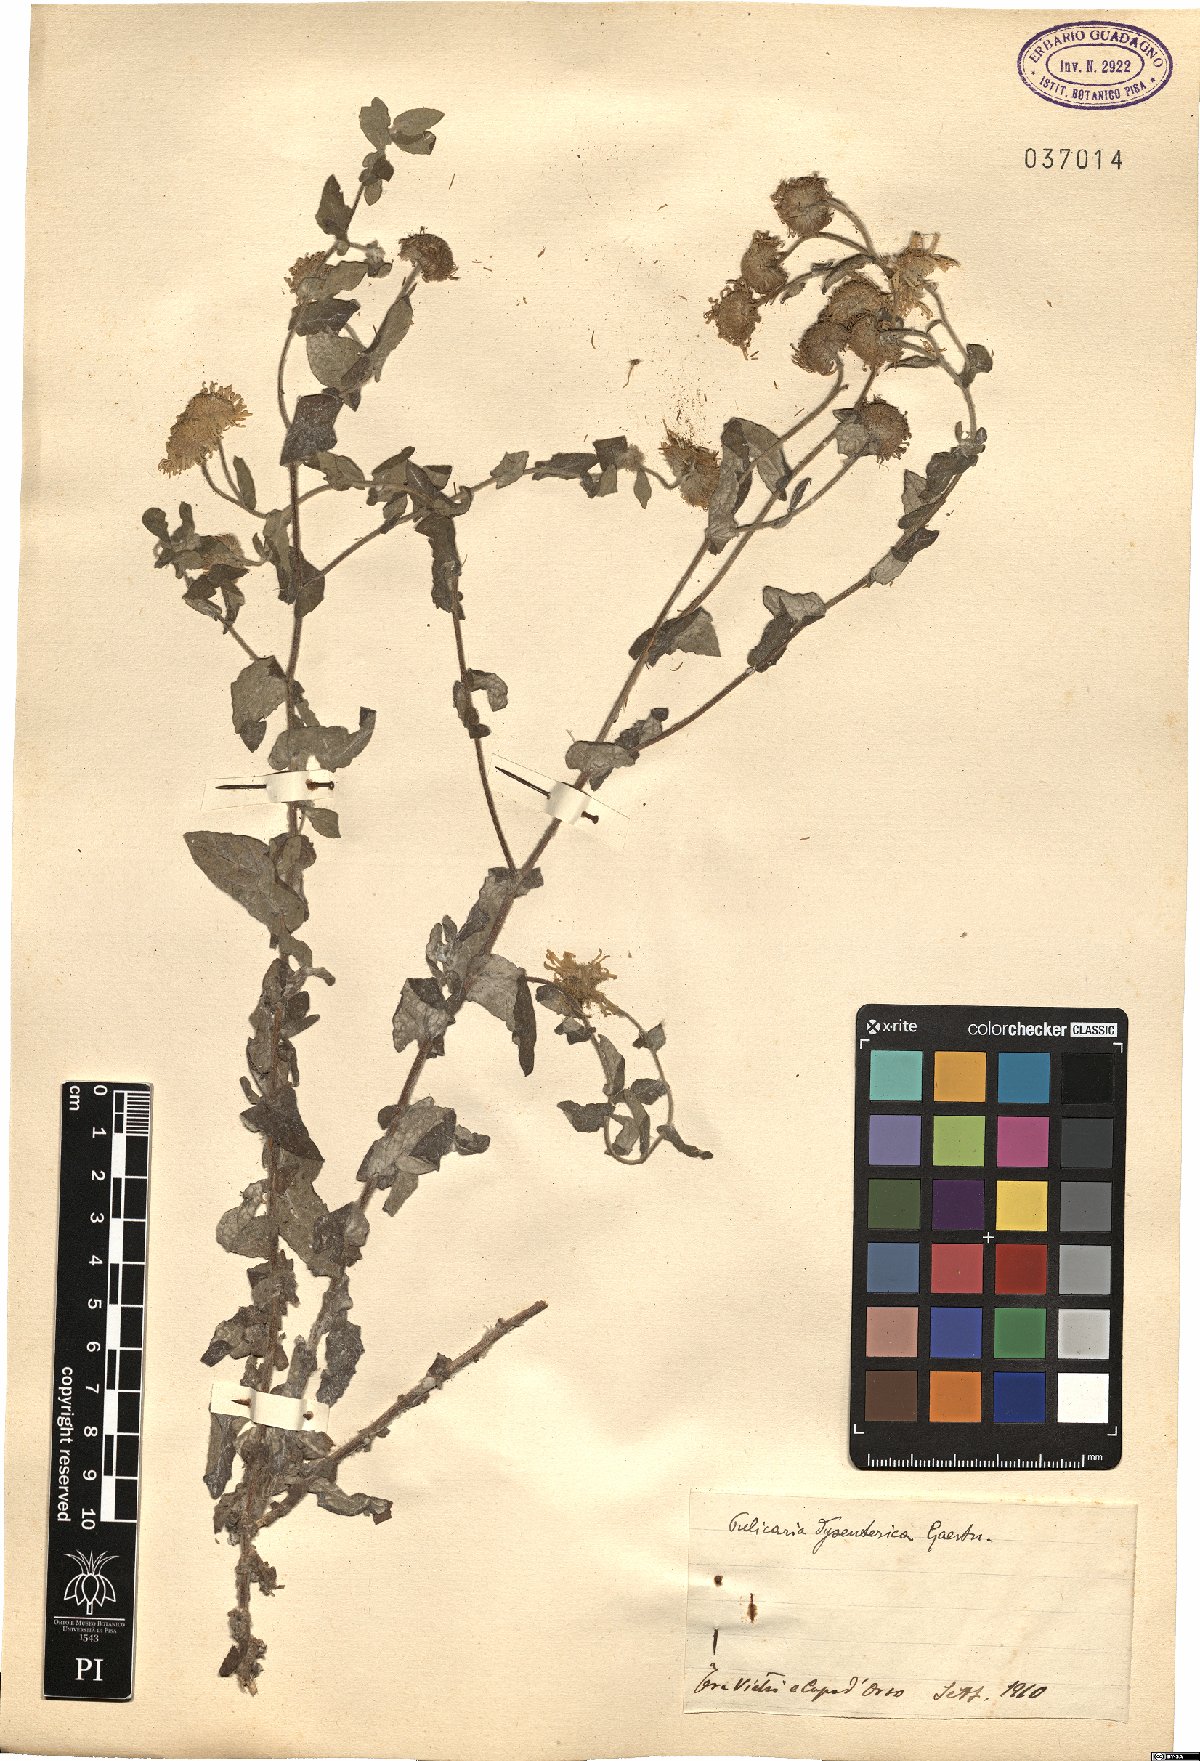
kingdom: Plantae
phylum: Tracheophyta
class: Magnoliopsida
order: Asterales
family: Asteraceae
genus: Pulicaria
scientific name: Pulicaria dysenterica
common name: Common fleabane
